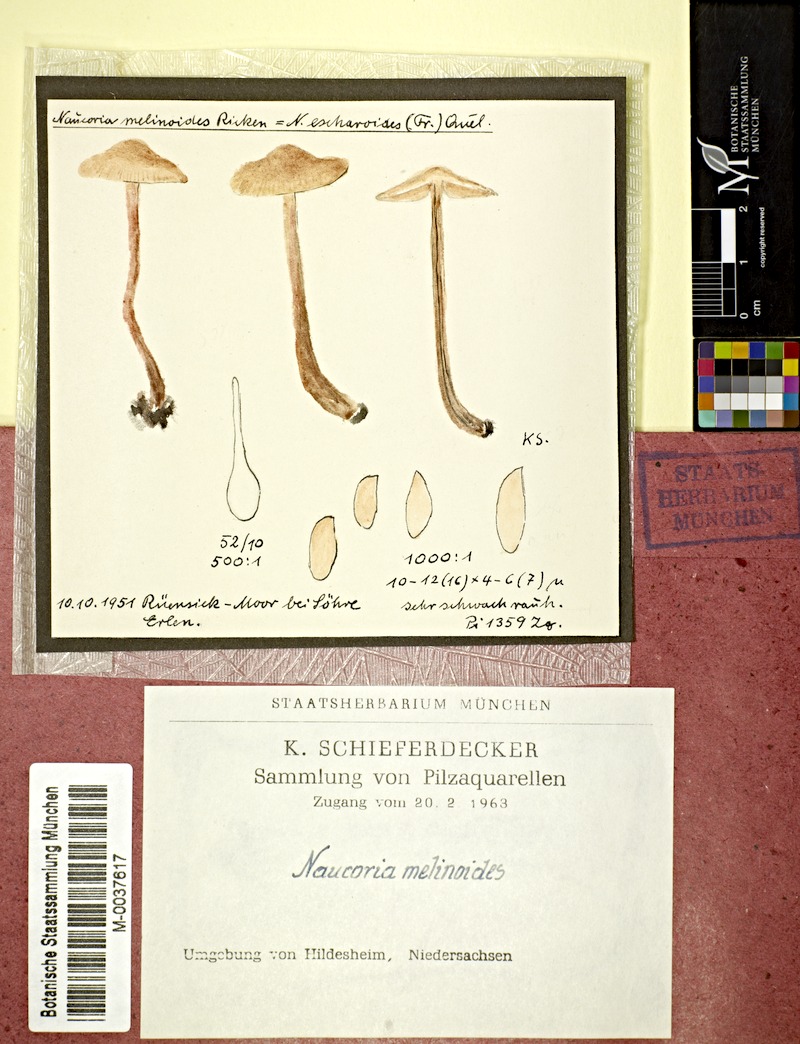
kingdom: Fungi
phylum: Basidiomycota
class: Agaricomycetes
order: Agaricales
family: Hymenogastraceae
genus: Naucoria
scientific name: Naucoria melinoides
